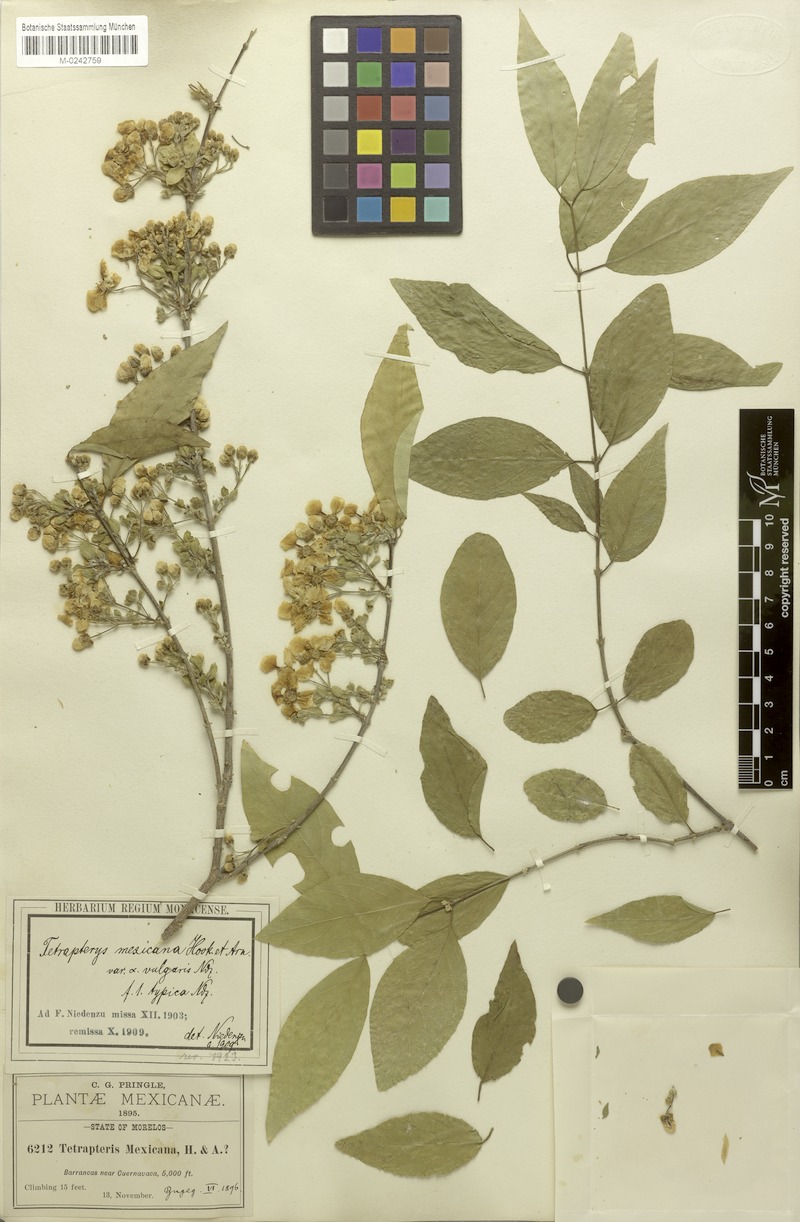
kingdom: Plantae
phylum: Tracheophyta
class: Magnoliopsida
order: Malpighiales
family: Malpighiaceae
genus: Tetrapterys
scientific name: Tetrapterys mexicana
